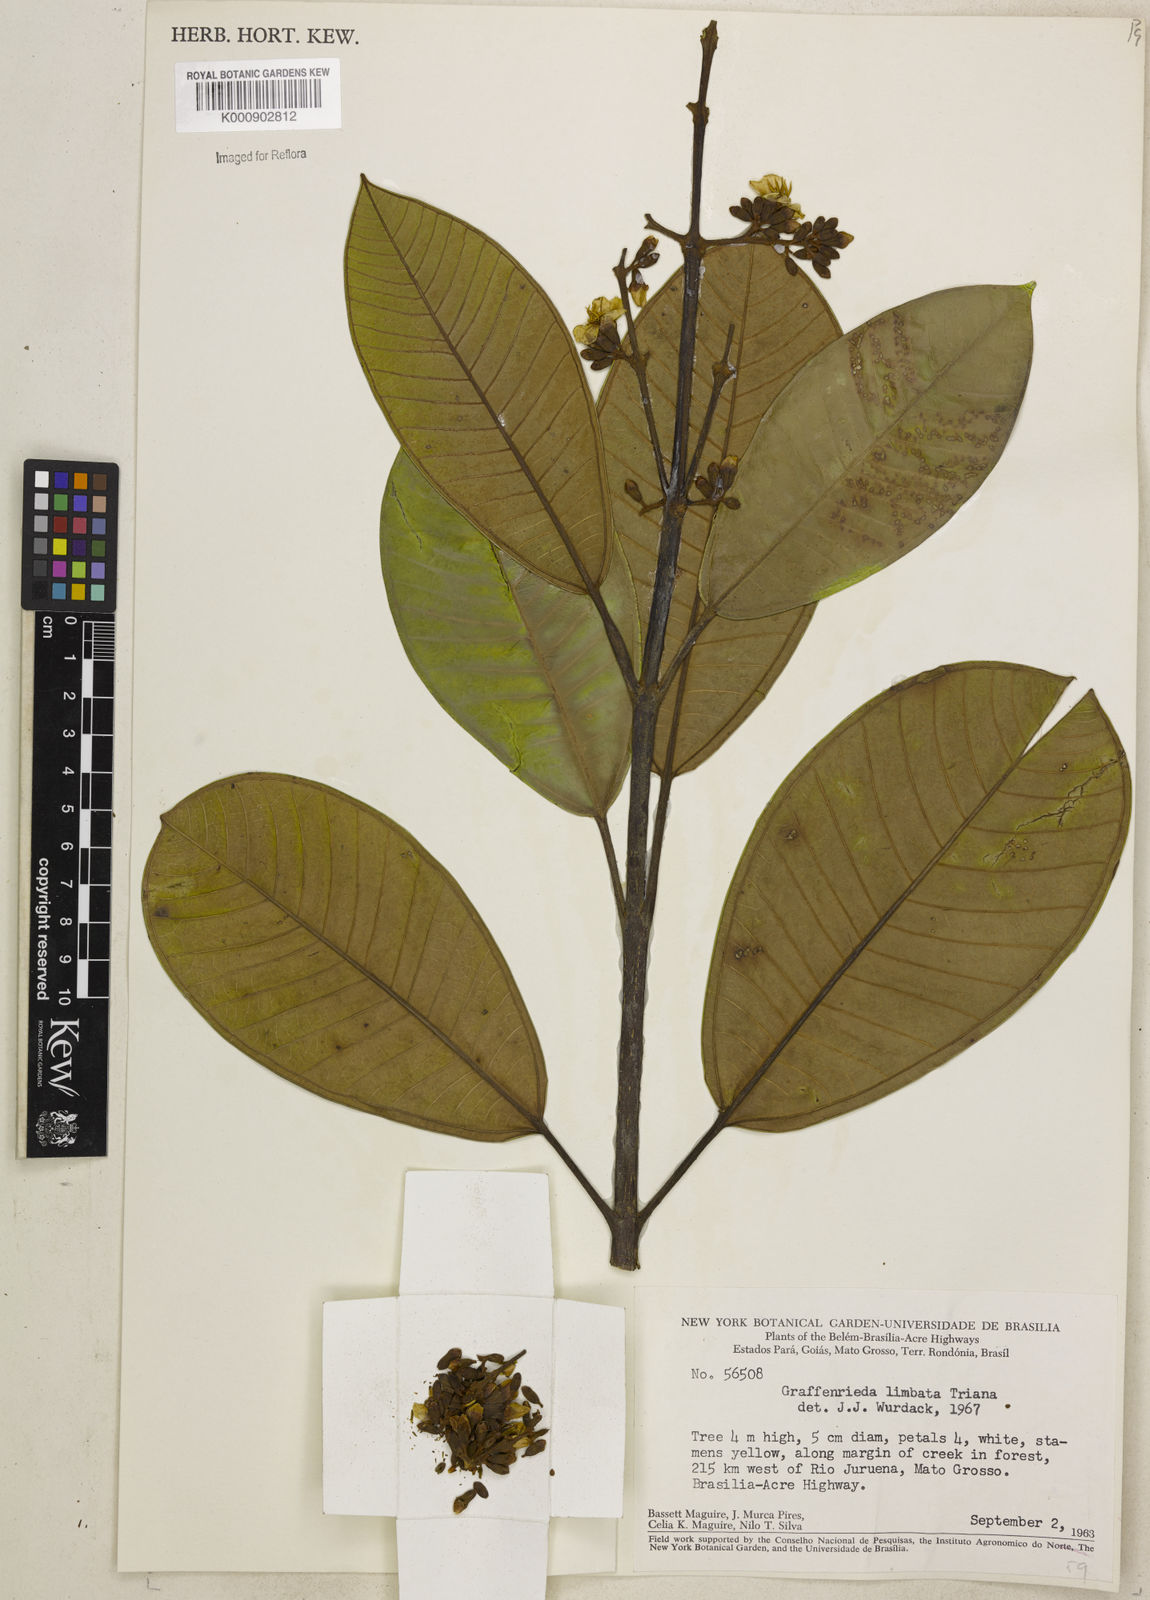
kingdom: Plantae
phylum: Tracheophyta
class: Magnoliopsida
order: Myrtales
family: Melastomataceae
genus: Graffenrieda
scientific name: Graffenrieda limbata
